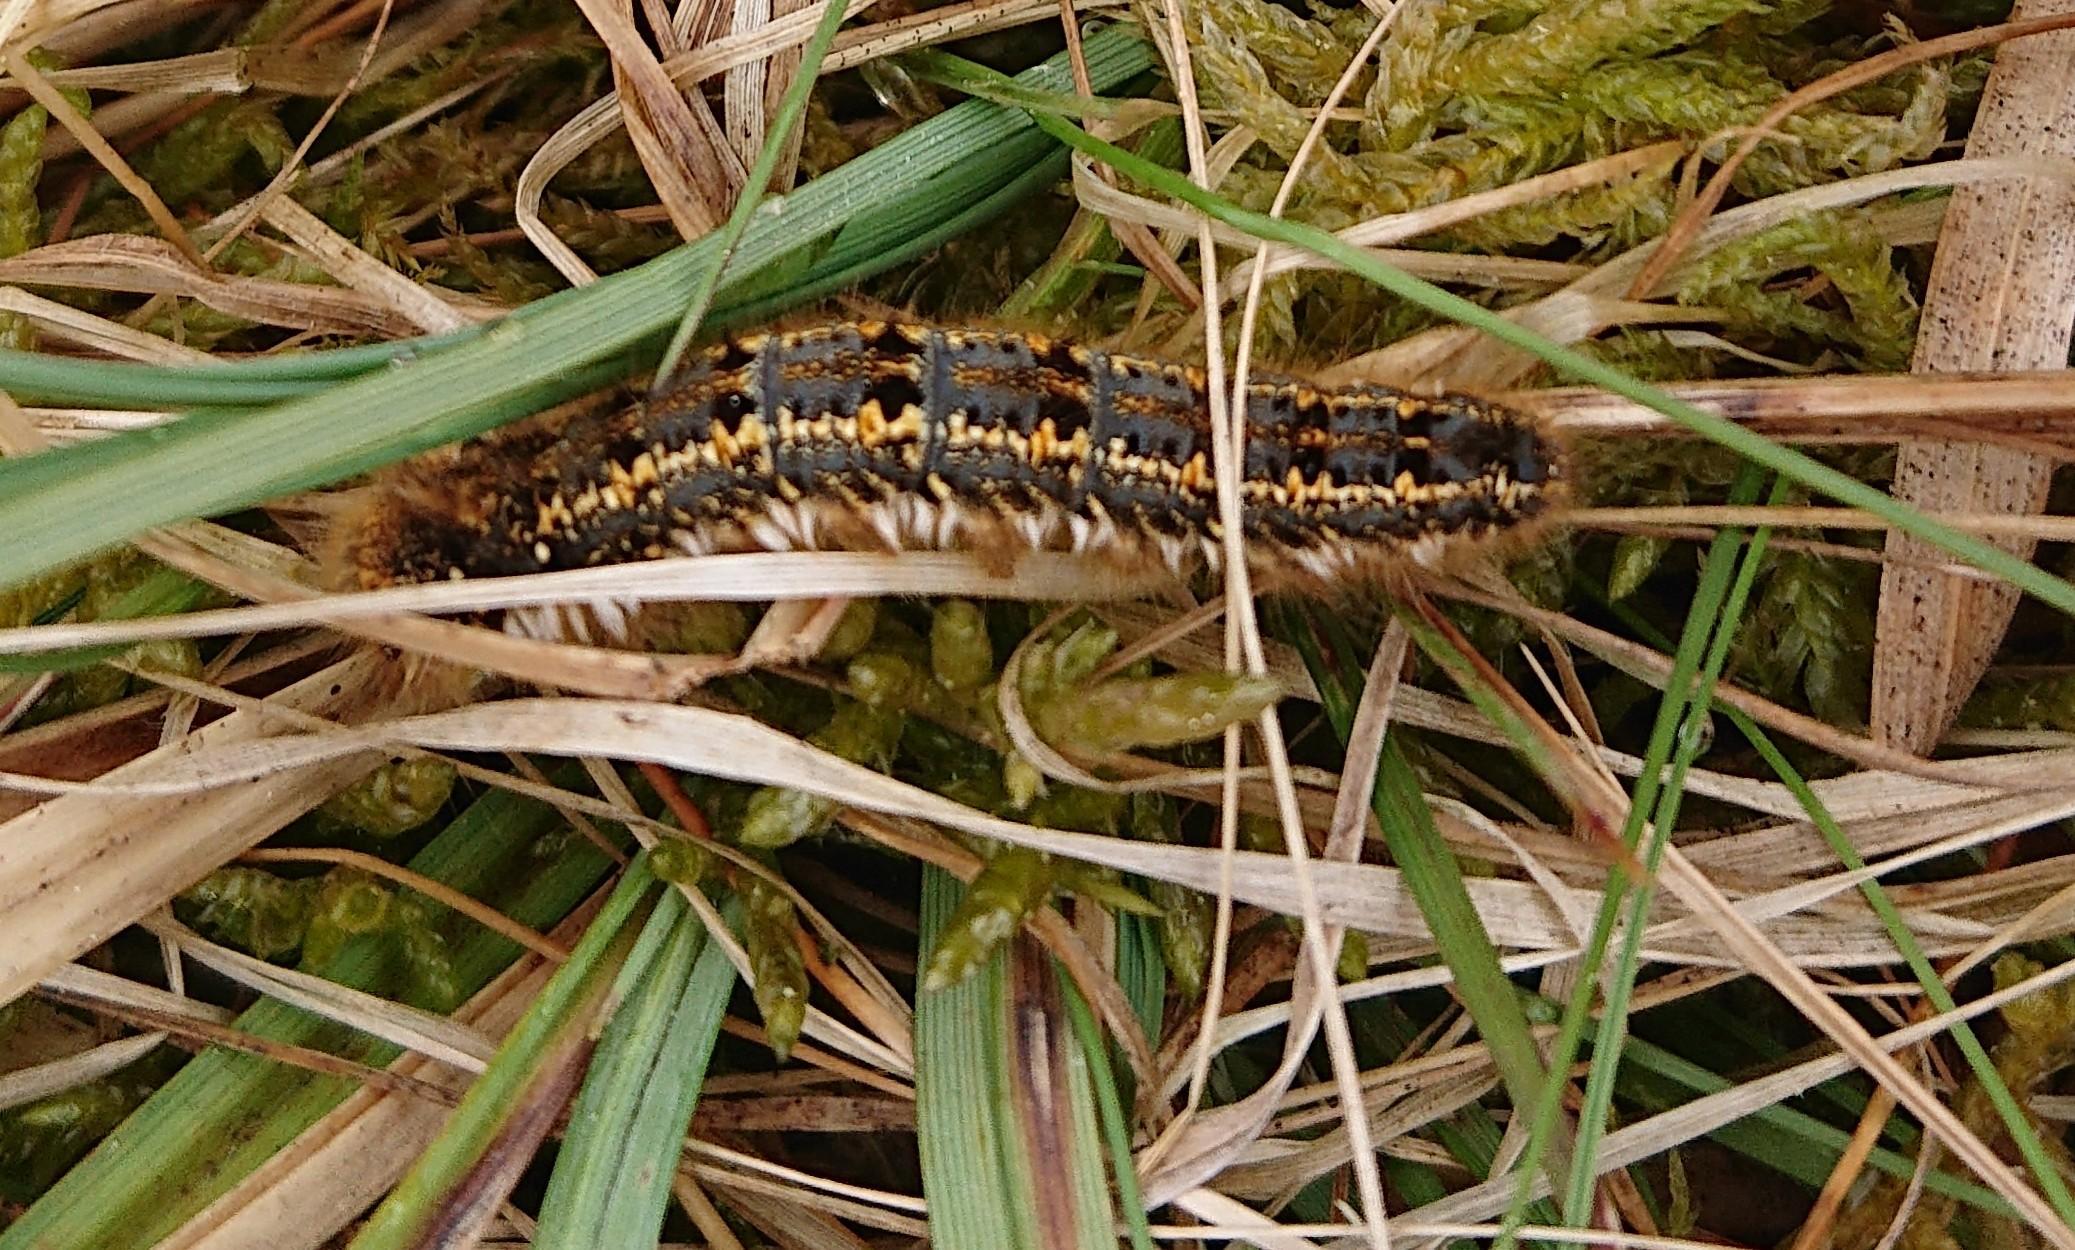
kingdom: Animalia
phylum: Arthropoda
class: Insecta
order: Lepidoptera
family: Lasiocampidae
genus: Euthrix
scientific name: Euthrix potatoria
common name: Græsspinder
